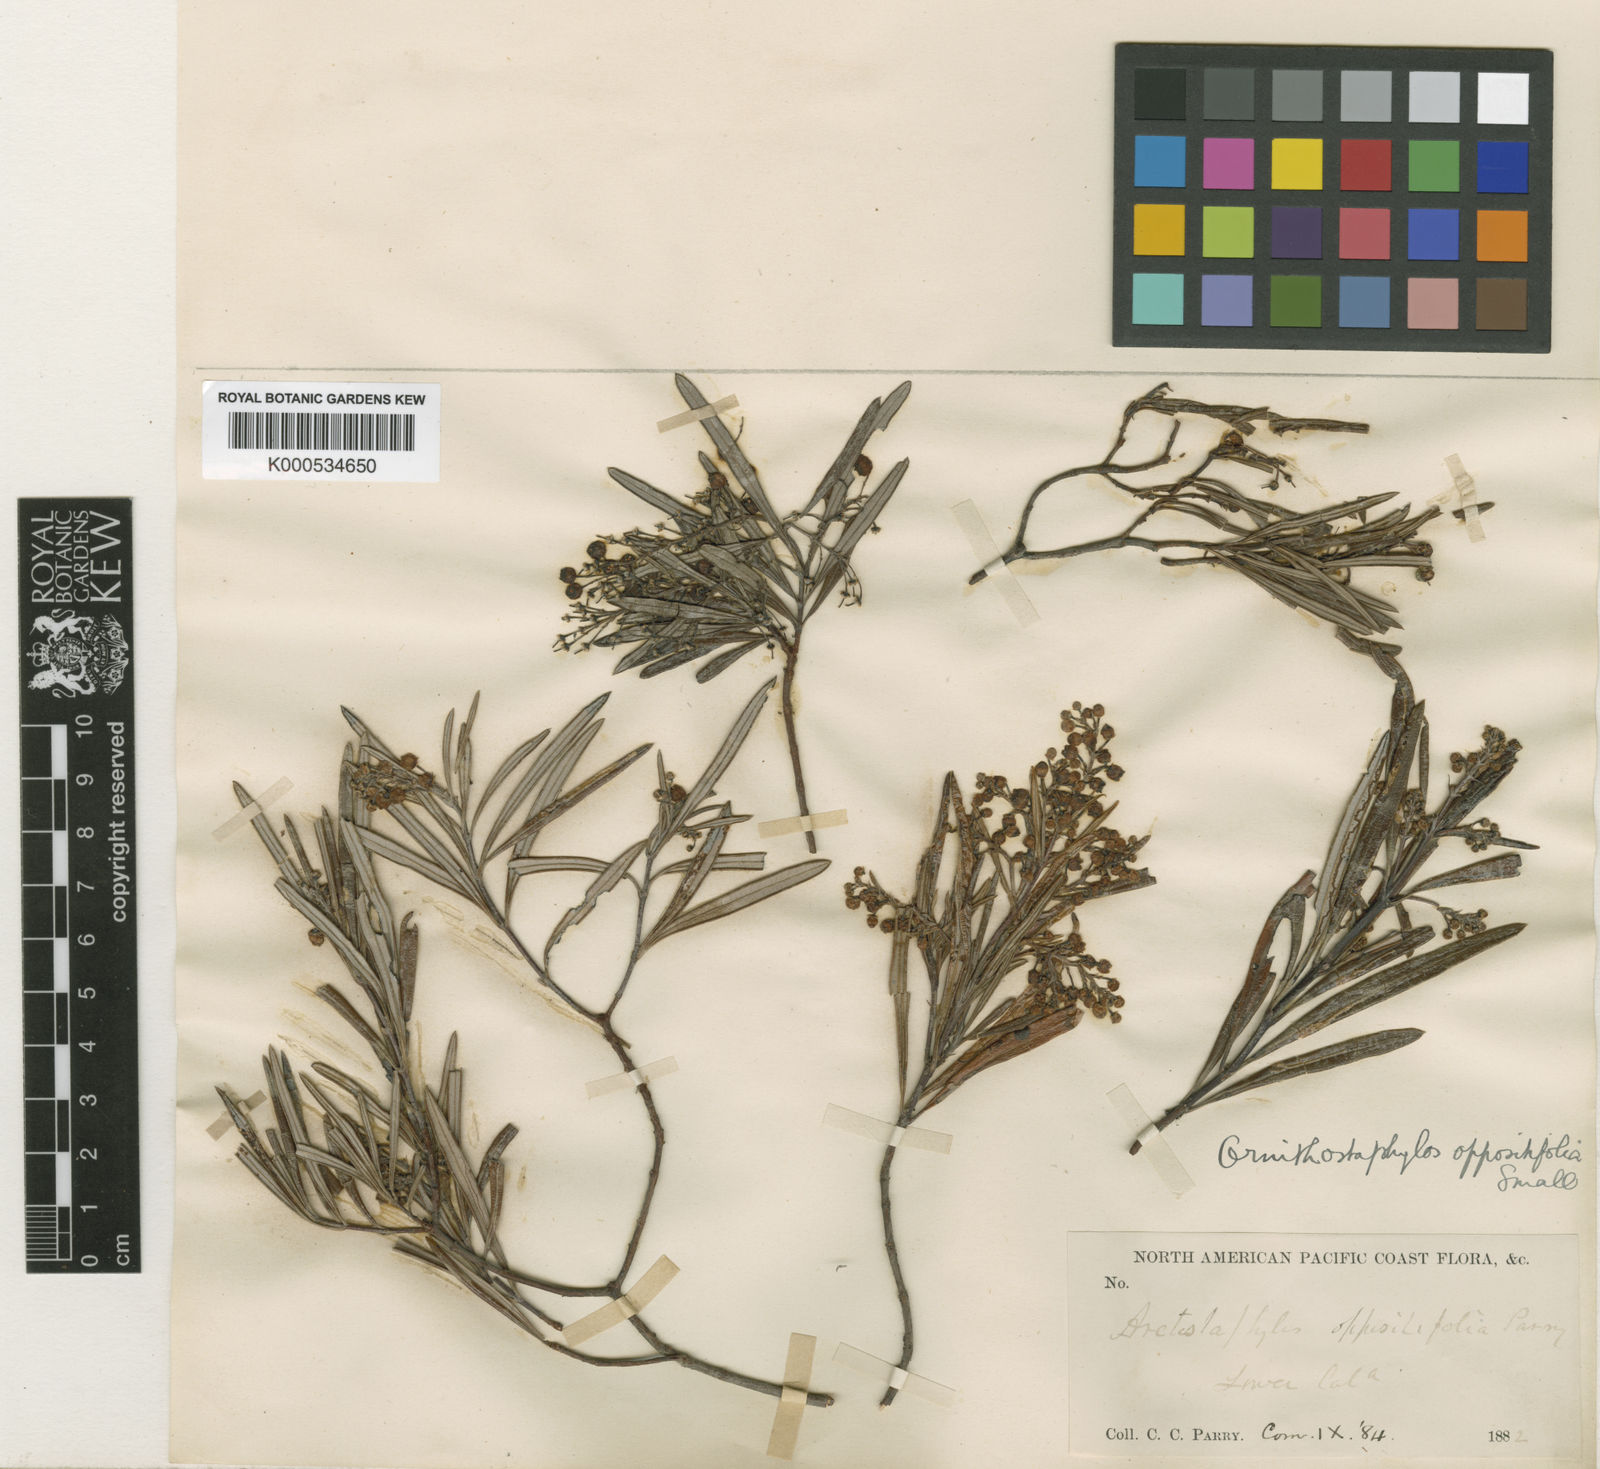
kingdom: Plantae
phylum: Tracheophyta
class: Magnoliopsida
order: Ericales
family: Ericaceae
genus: Ornithostaphylos
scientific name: Ornithostaphylos oppositifolia
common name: Baja california birdbush
